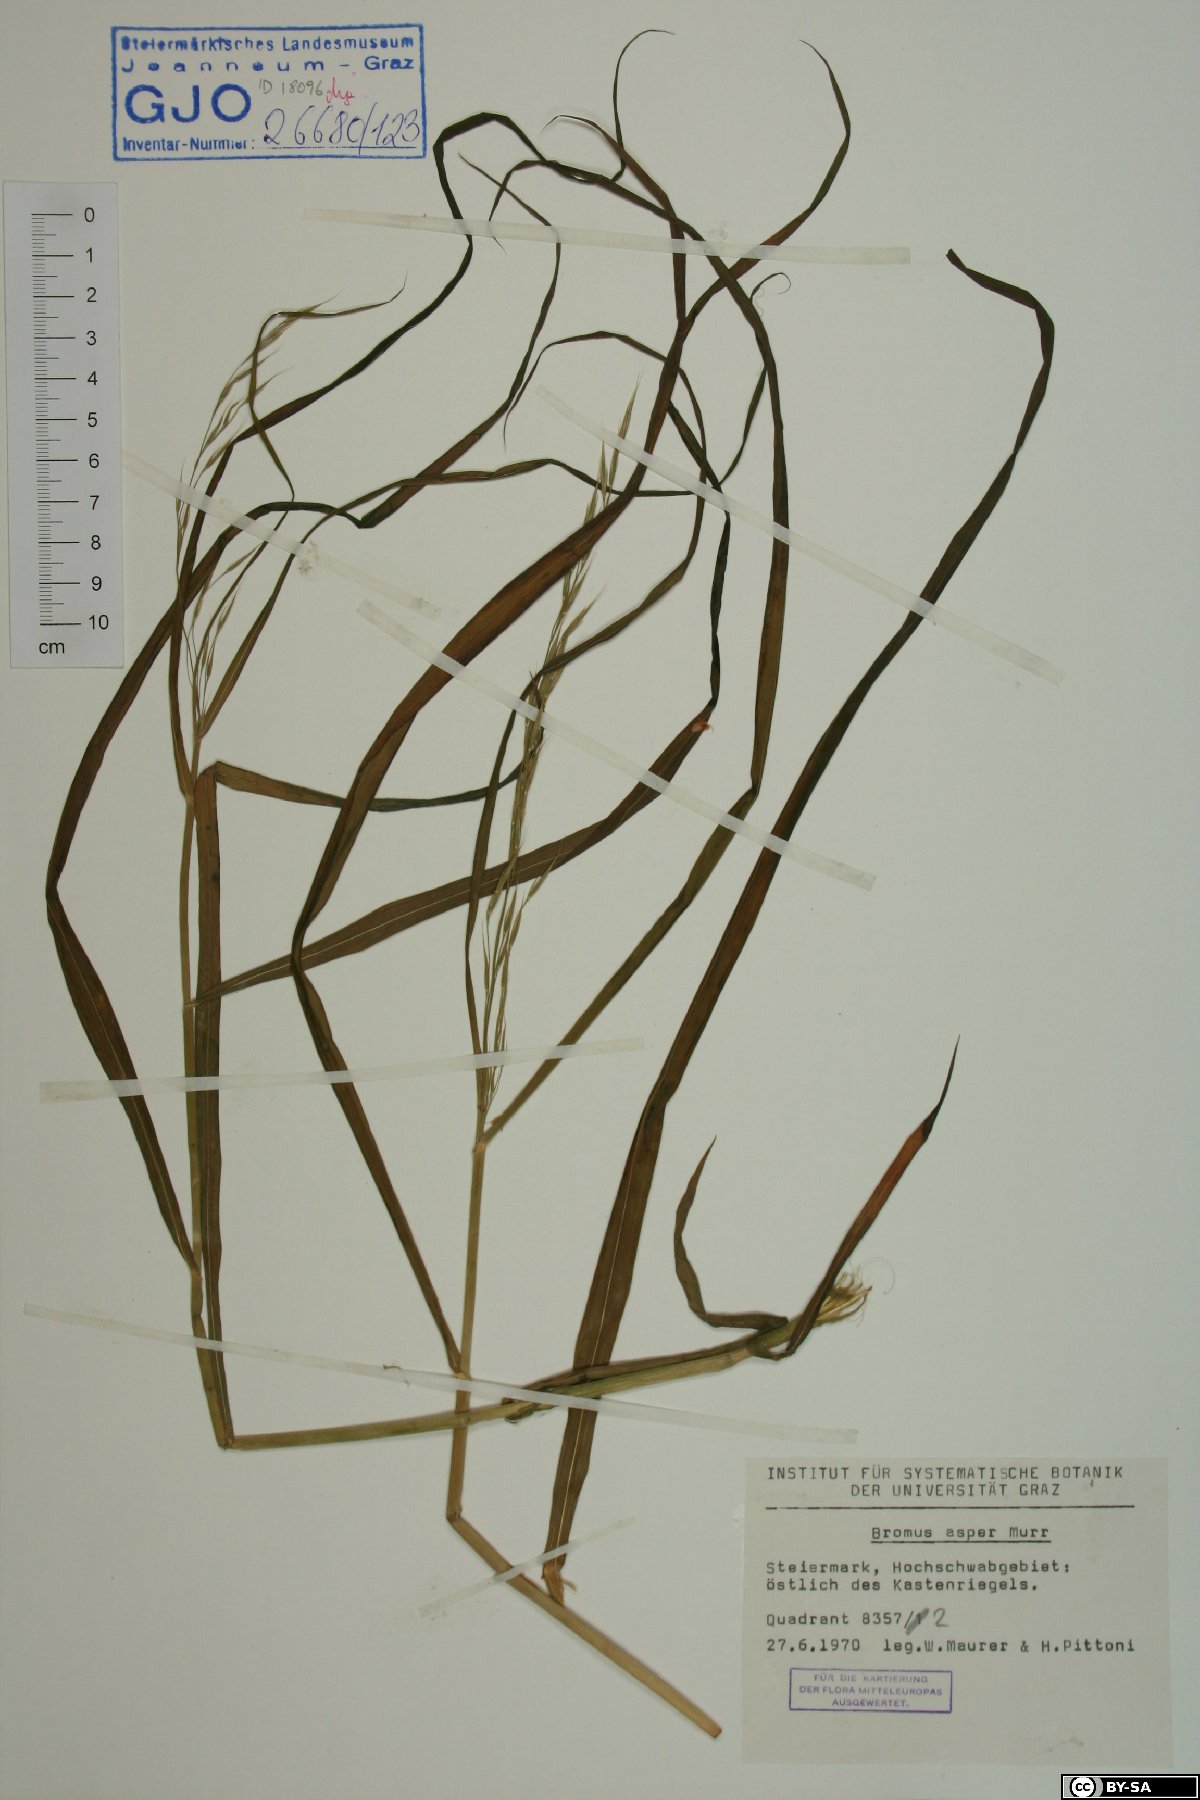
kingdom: Plantae
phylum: Tracheophyta
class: Liliopsida
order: Poales
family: Poaceae
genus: Bromus
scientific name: Bromus ramosus
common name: Hairy brome
